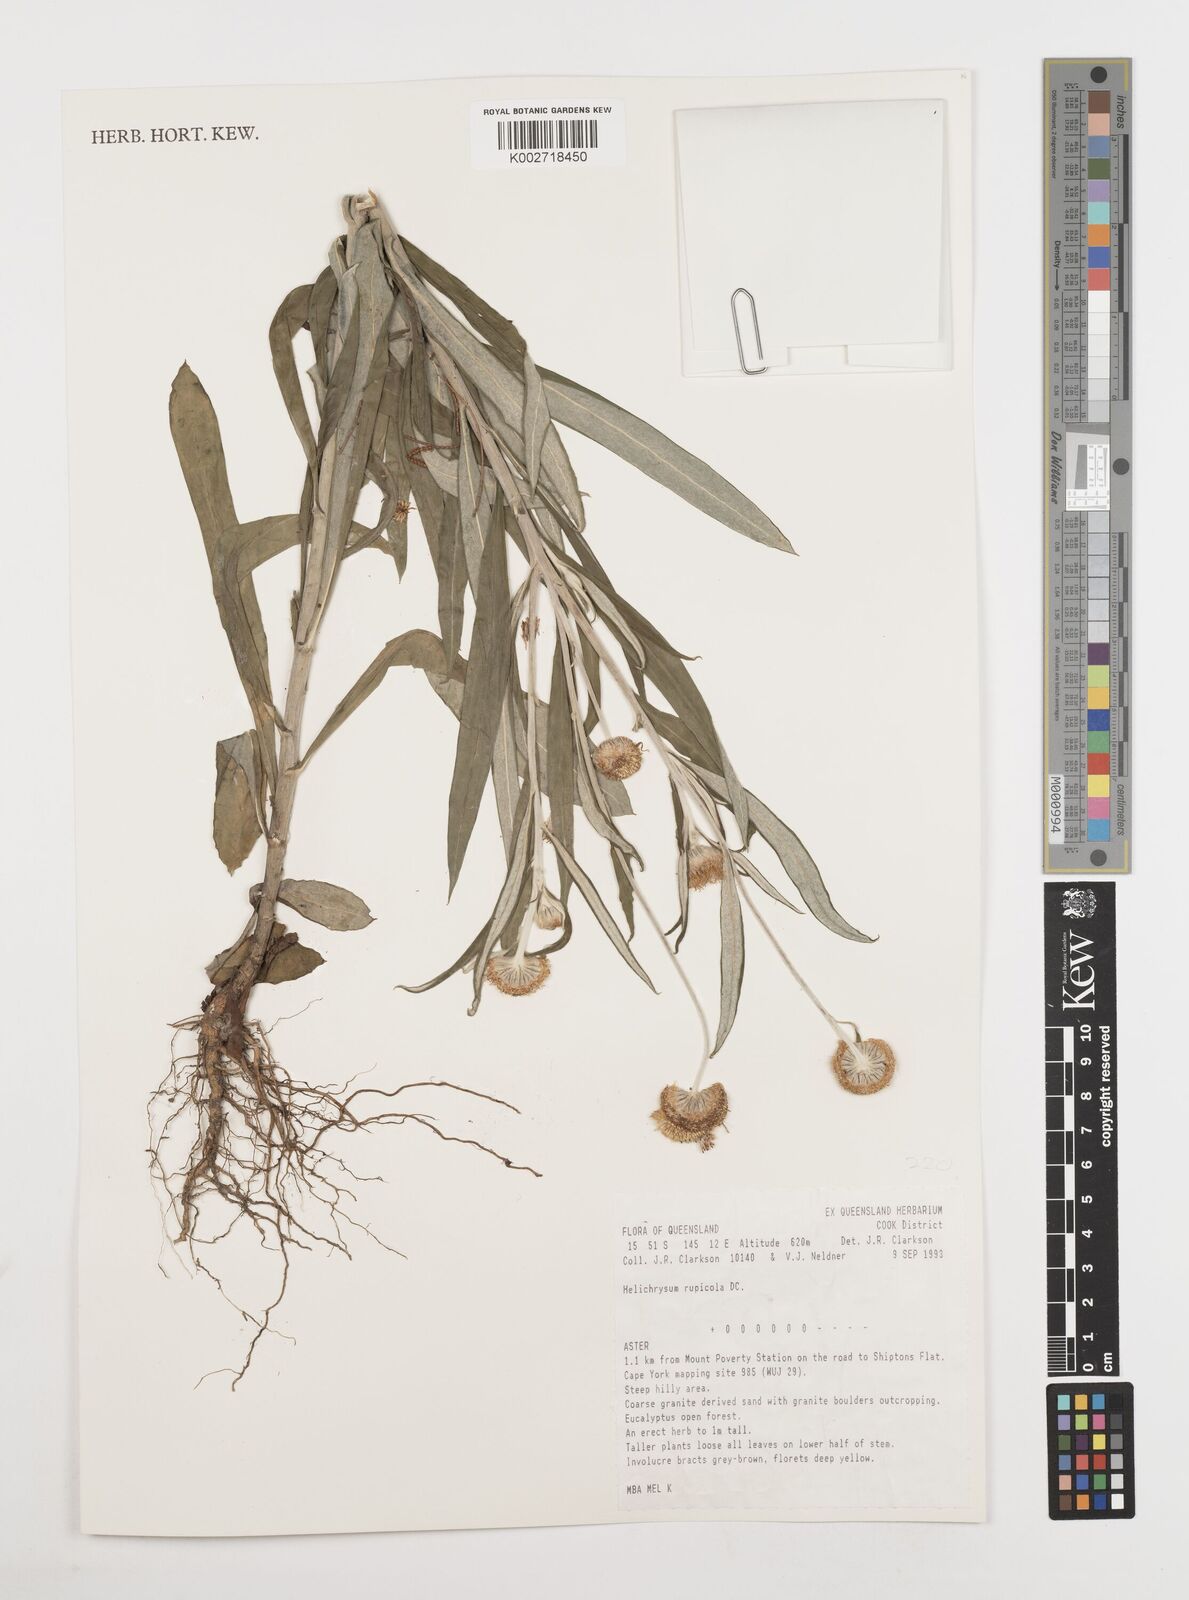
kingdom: Plantae
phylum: Tracheophyta
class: Magnoliopsida
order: Asterales
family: Asteraceae
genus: Coronidium
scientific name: Coronidium rupicola
